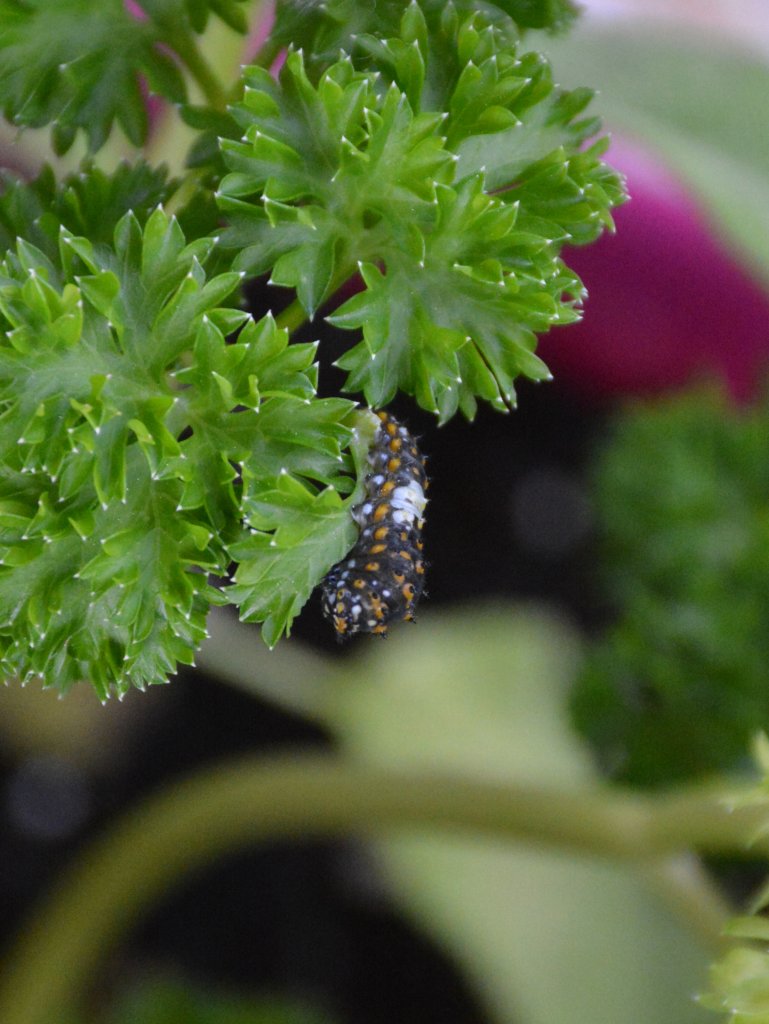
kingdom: Animalia
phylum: Arthropoda
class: Insecta
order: Lepidoptera
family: Papilionidae
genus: Papilio
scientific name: Papilio polyxenes
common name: Black Swallowtail
